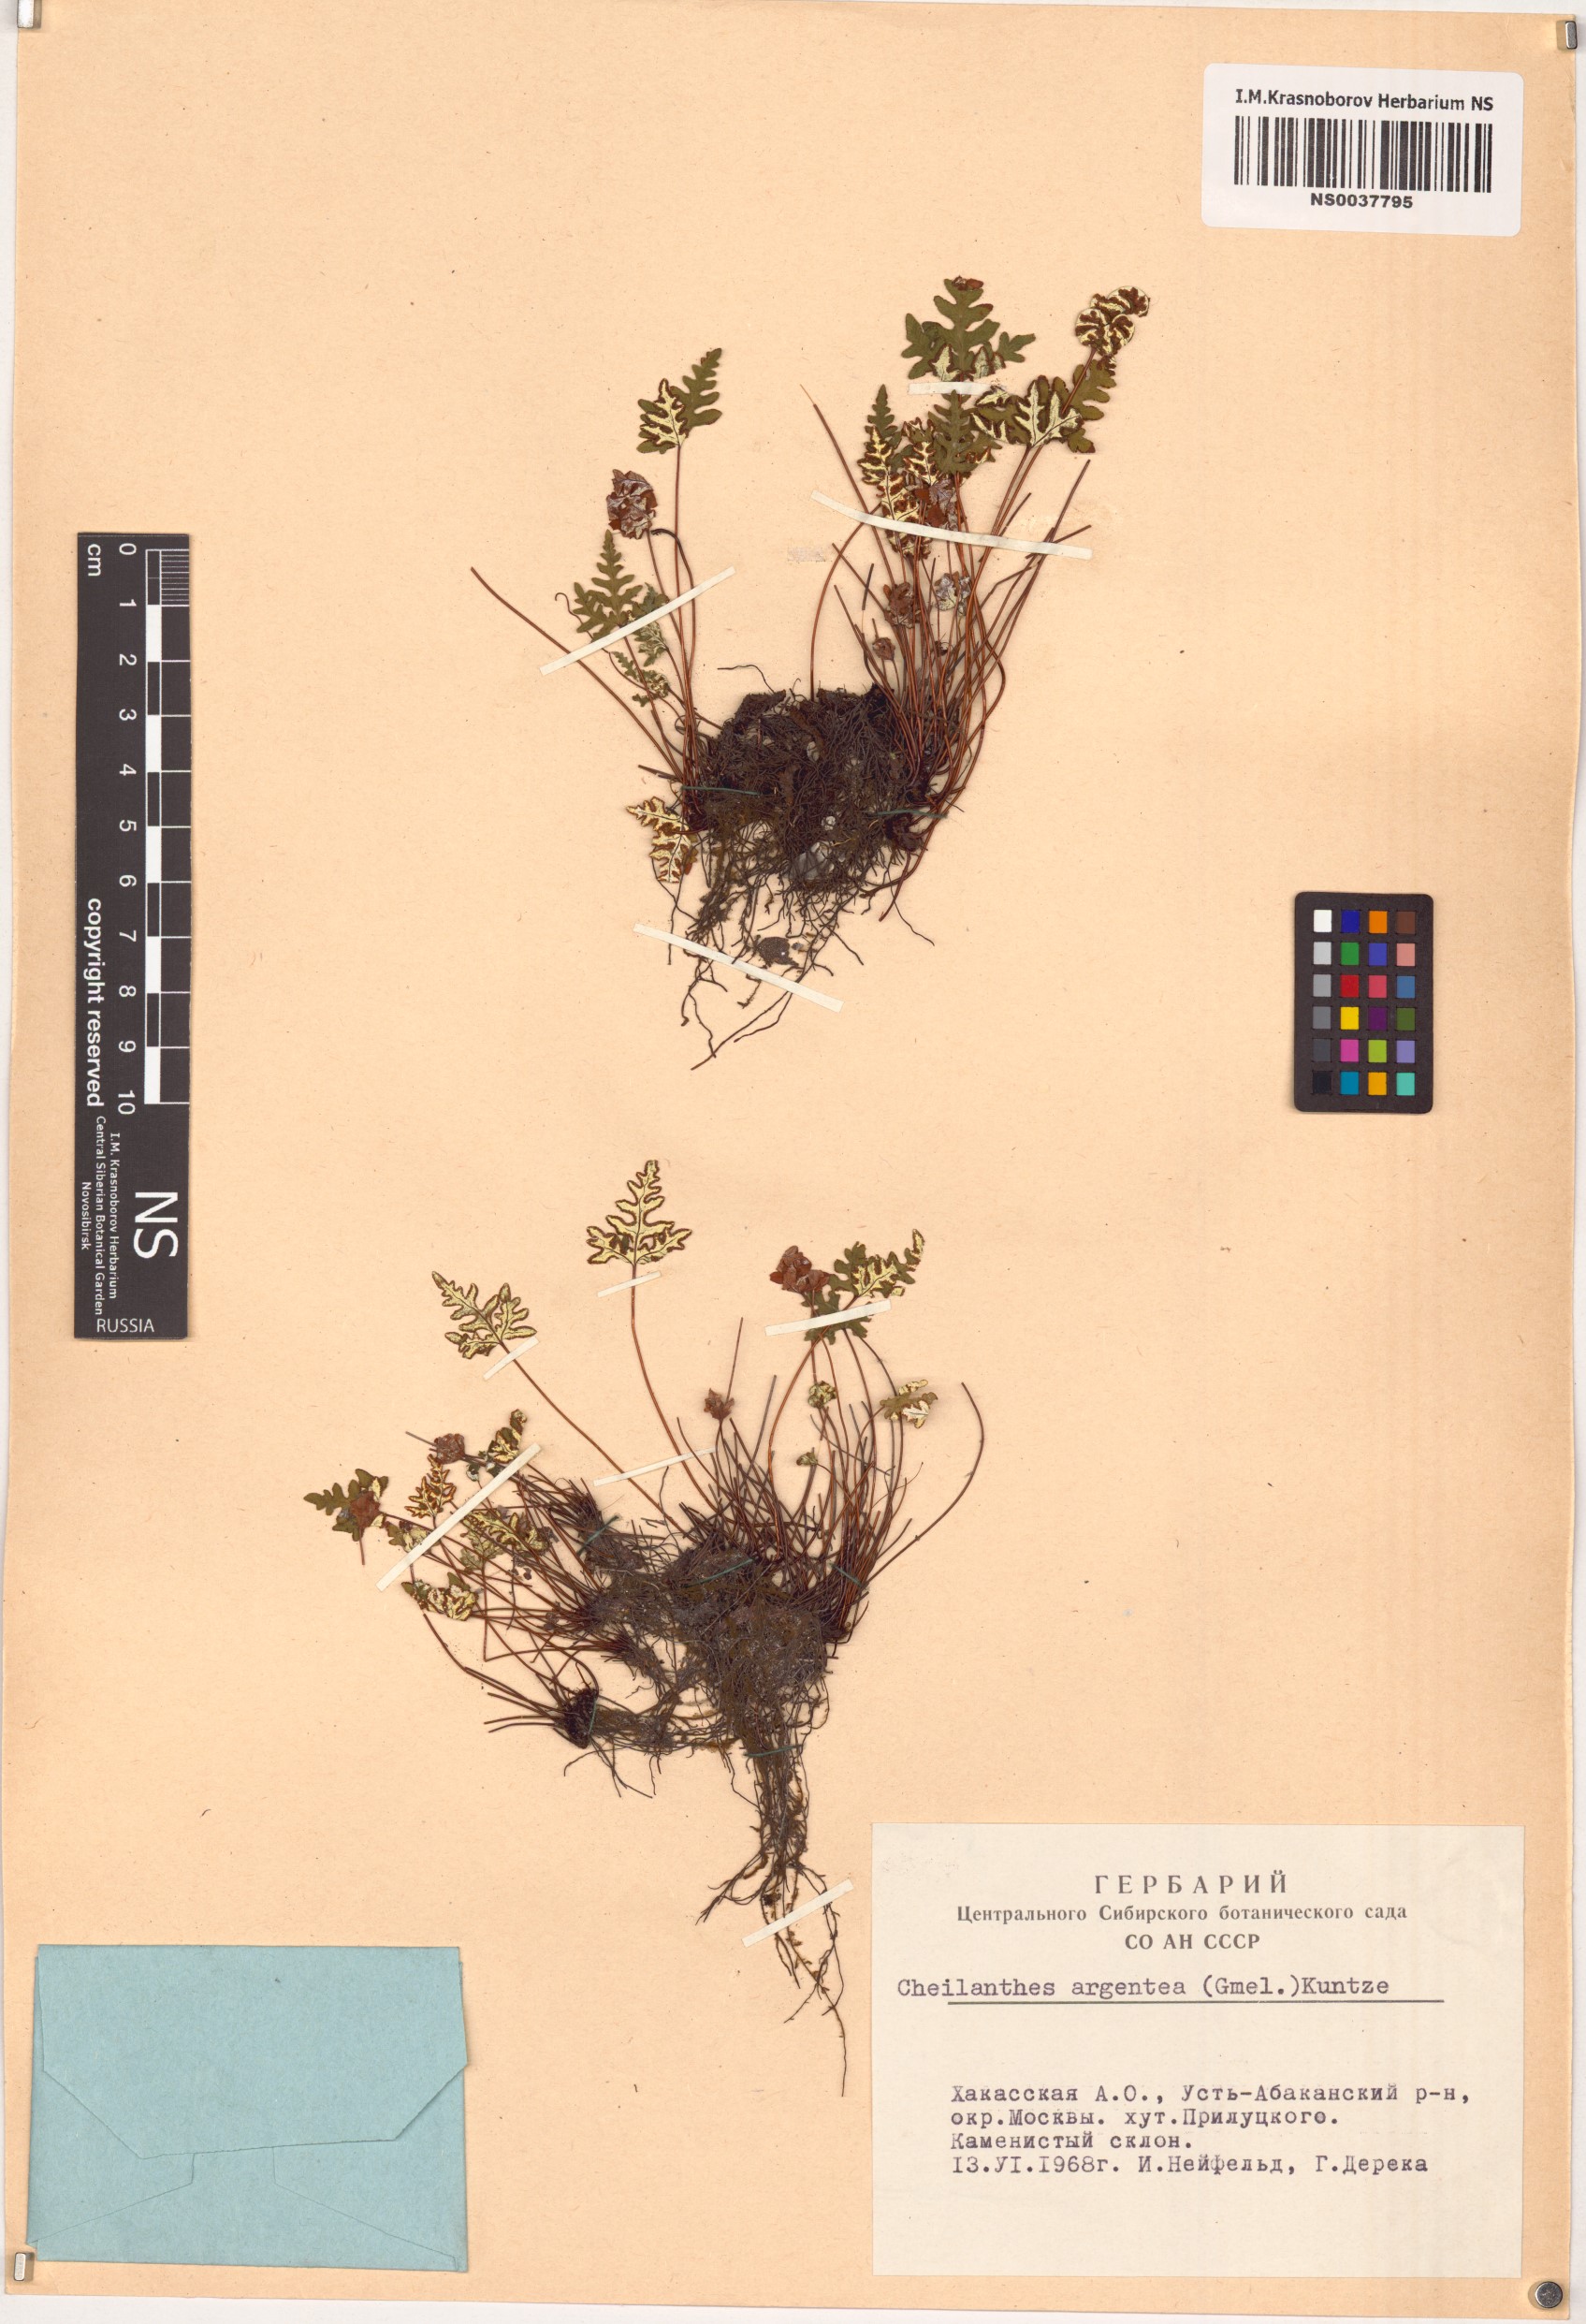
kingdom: Plantae
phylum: Tracheophyta
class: Polypodiopsida
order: Polypodiales
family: Pteridaceae
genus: Aleuritopteris
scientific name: Aleuritopteris argentea
